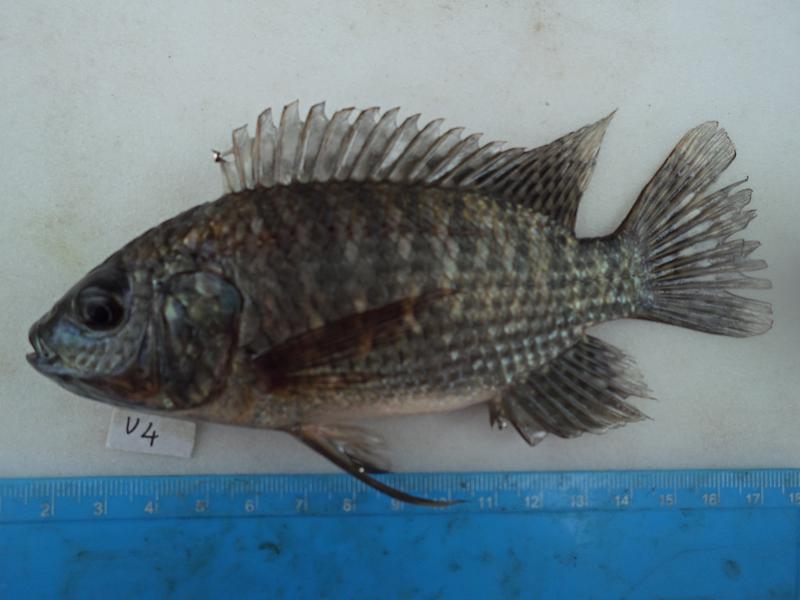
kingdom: Animalia
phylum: Chordata
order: Perciformes
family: Cichlidae
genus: Oreochromis
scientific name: Oreochromis leucostictus
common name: Blue spotted tilapia
